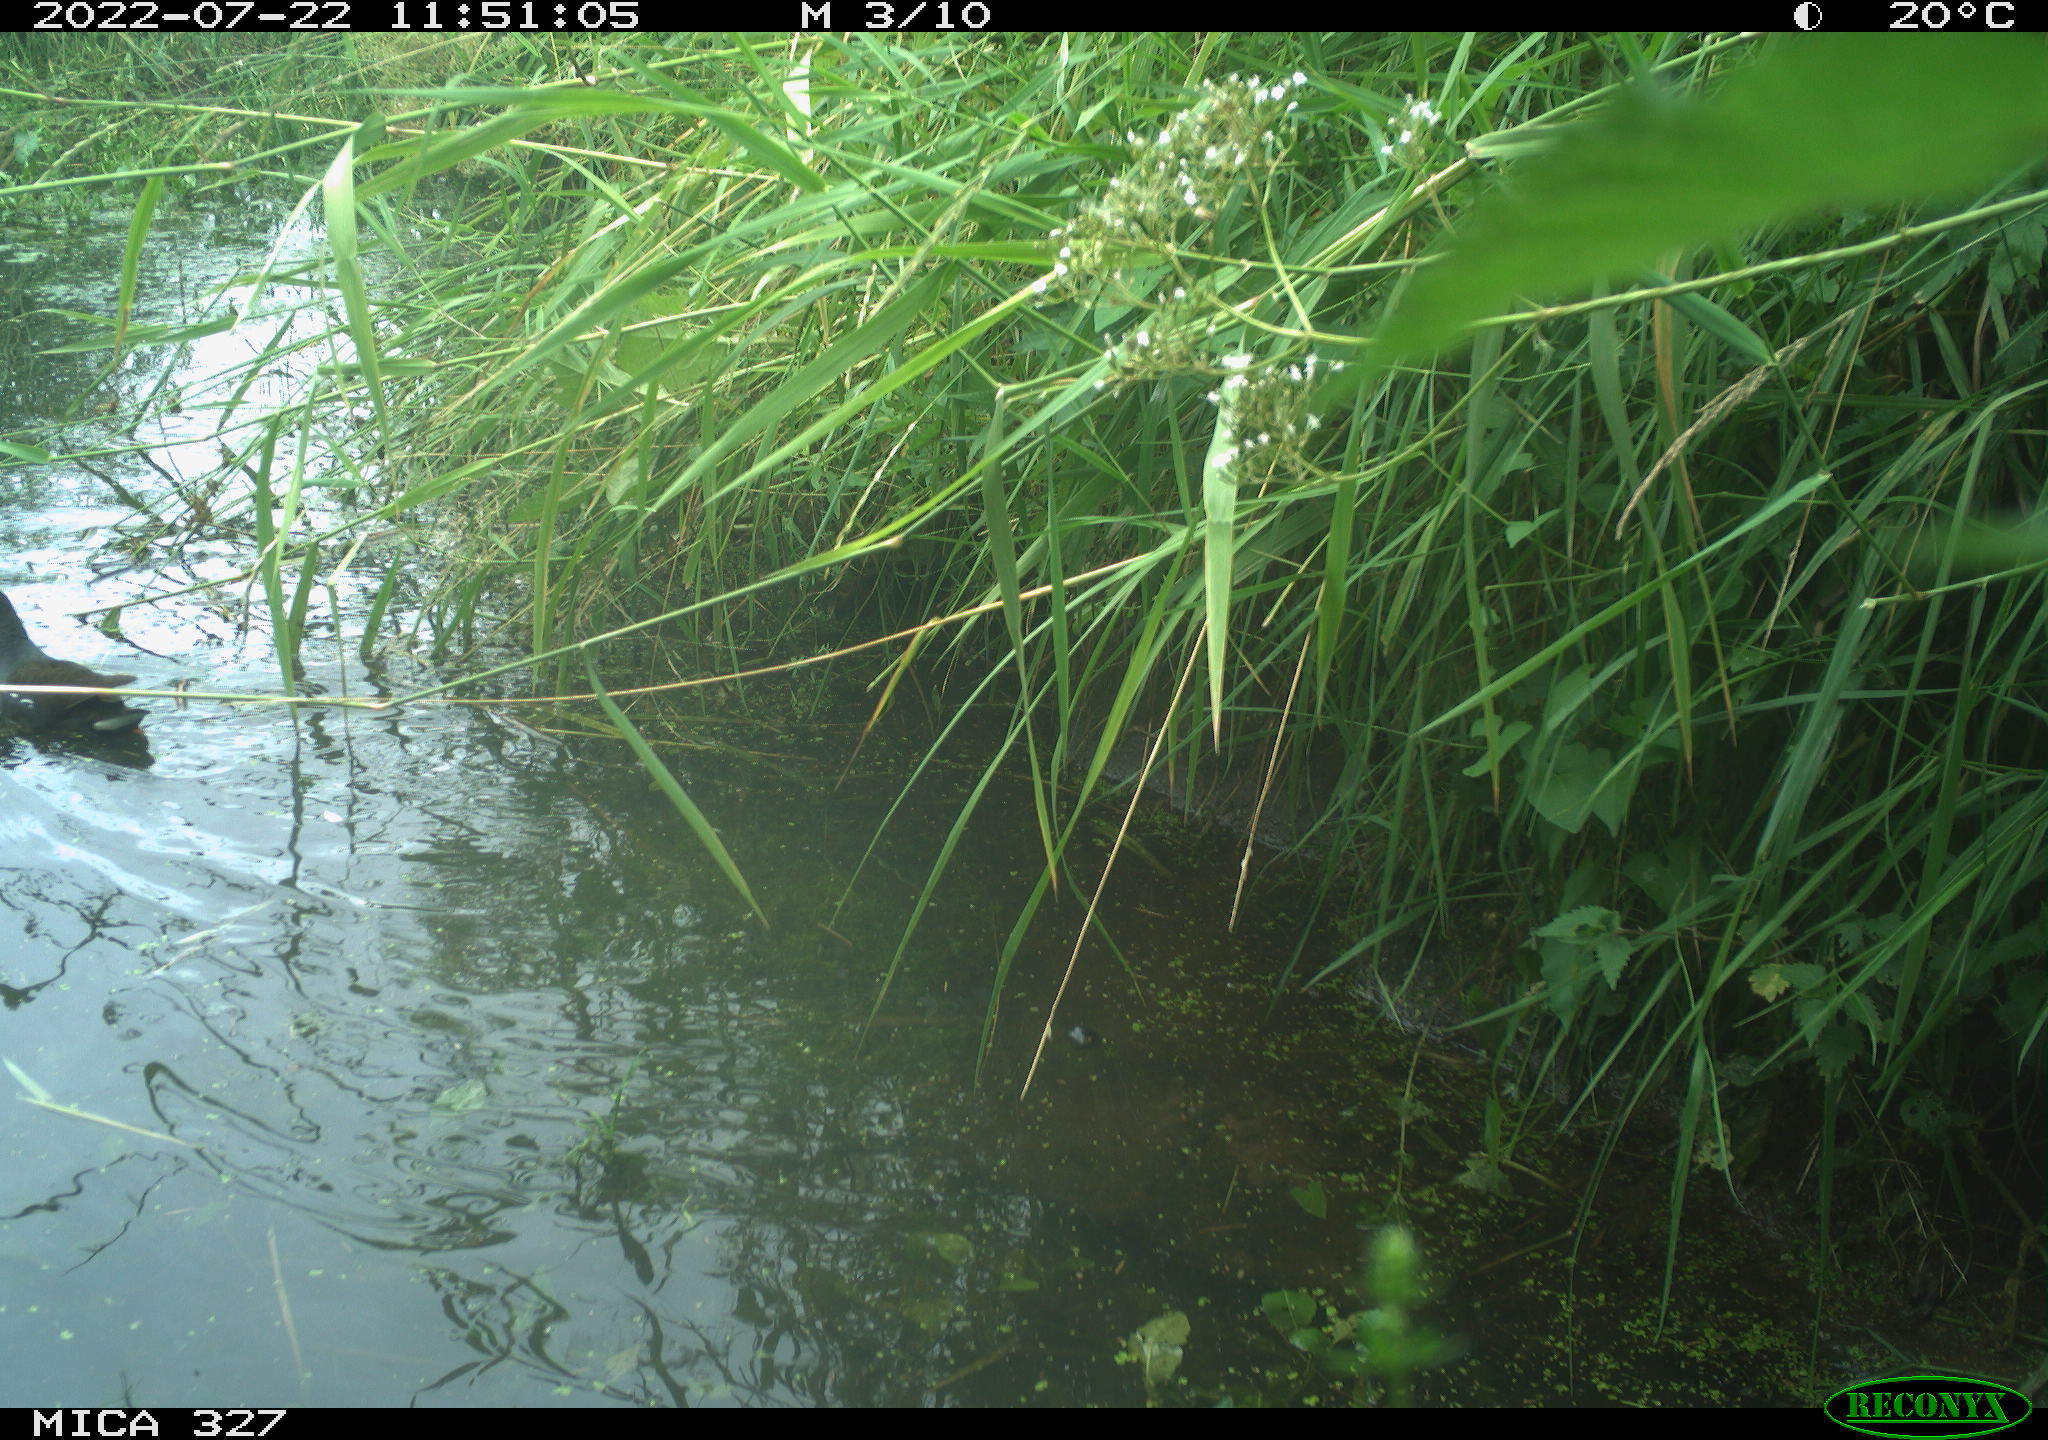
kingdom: Animalia
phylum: Chordata
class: Aves
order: Gruiformes
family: Rallidae
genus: Gallinula
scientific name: Gallinula chloropus
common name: Common moorhen
